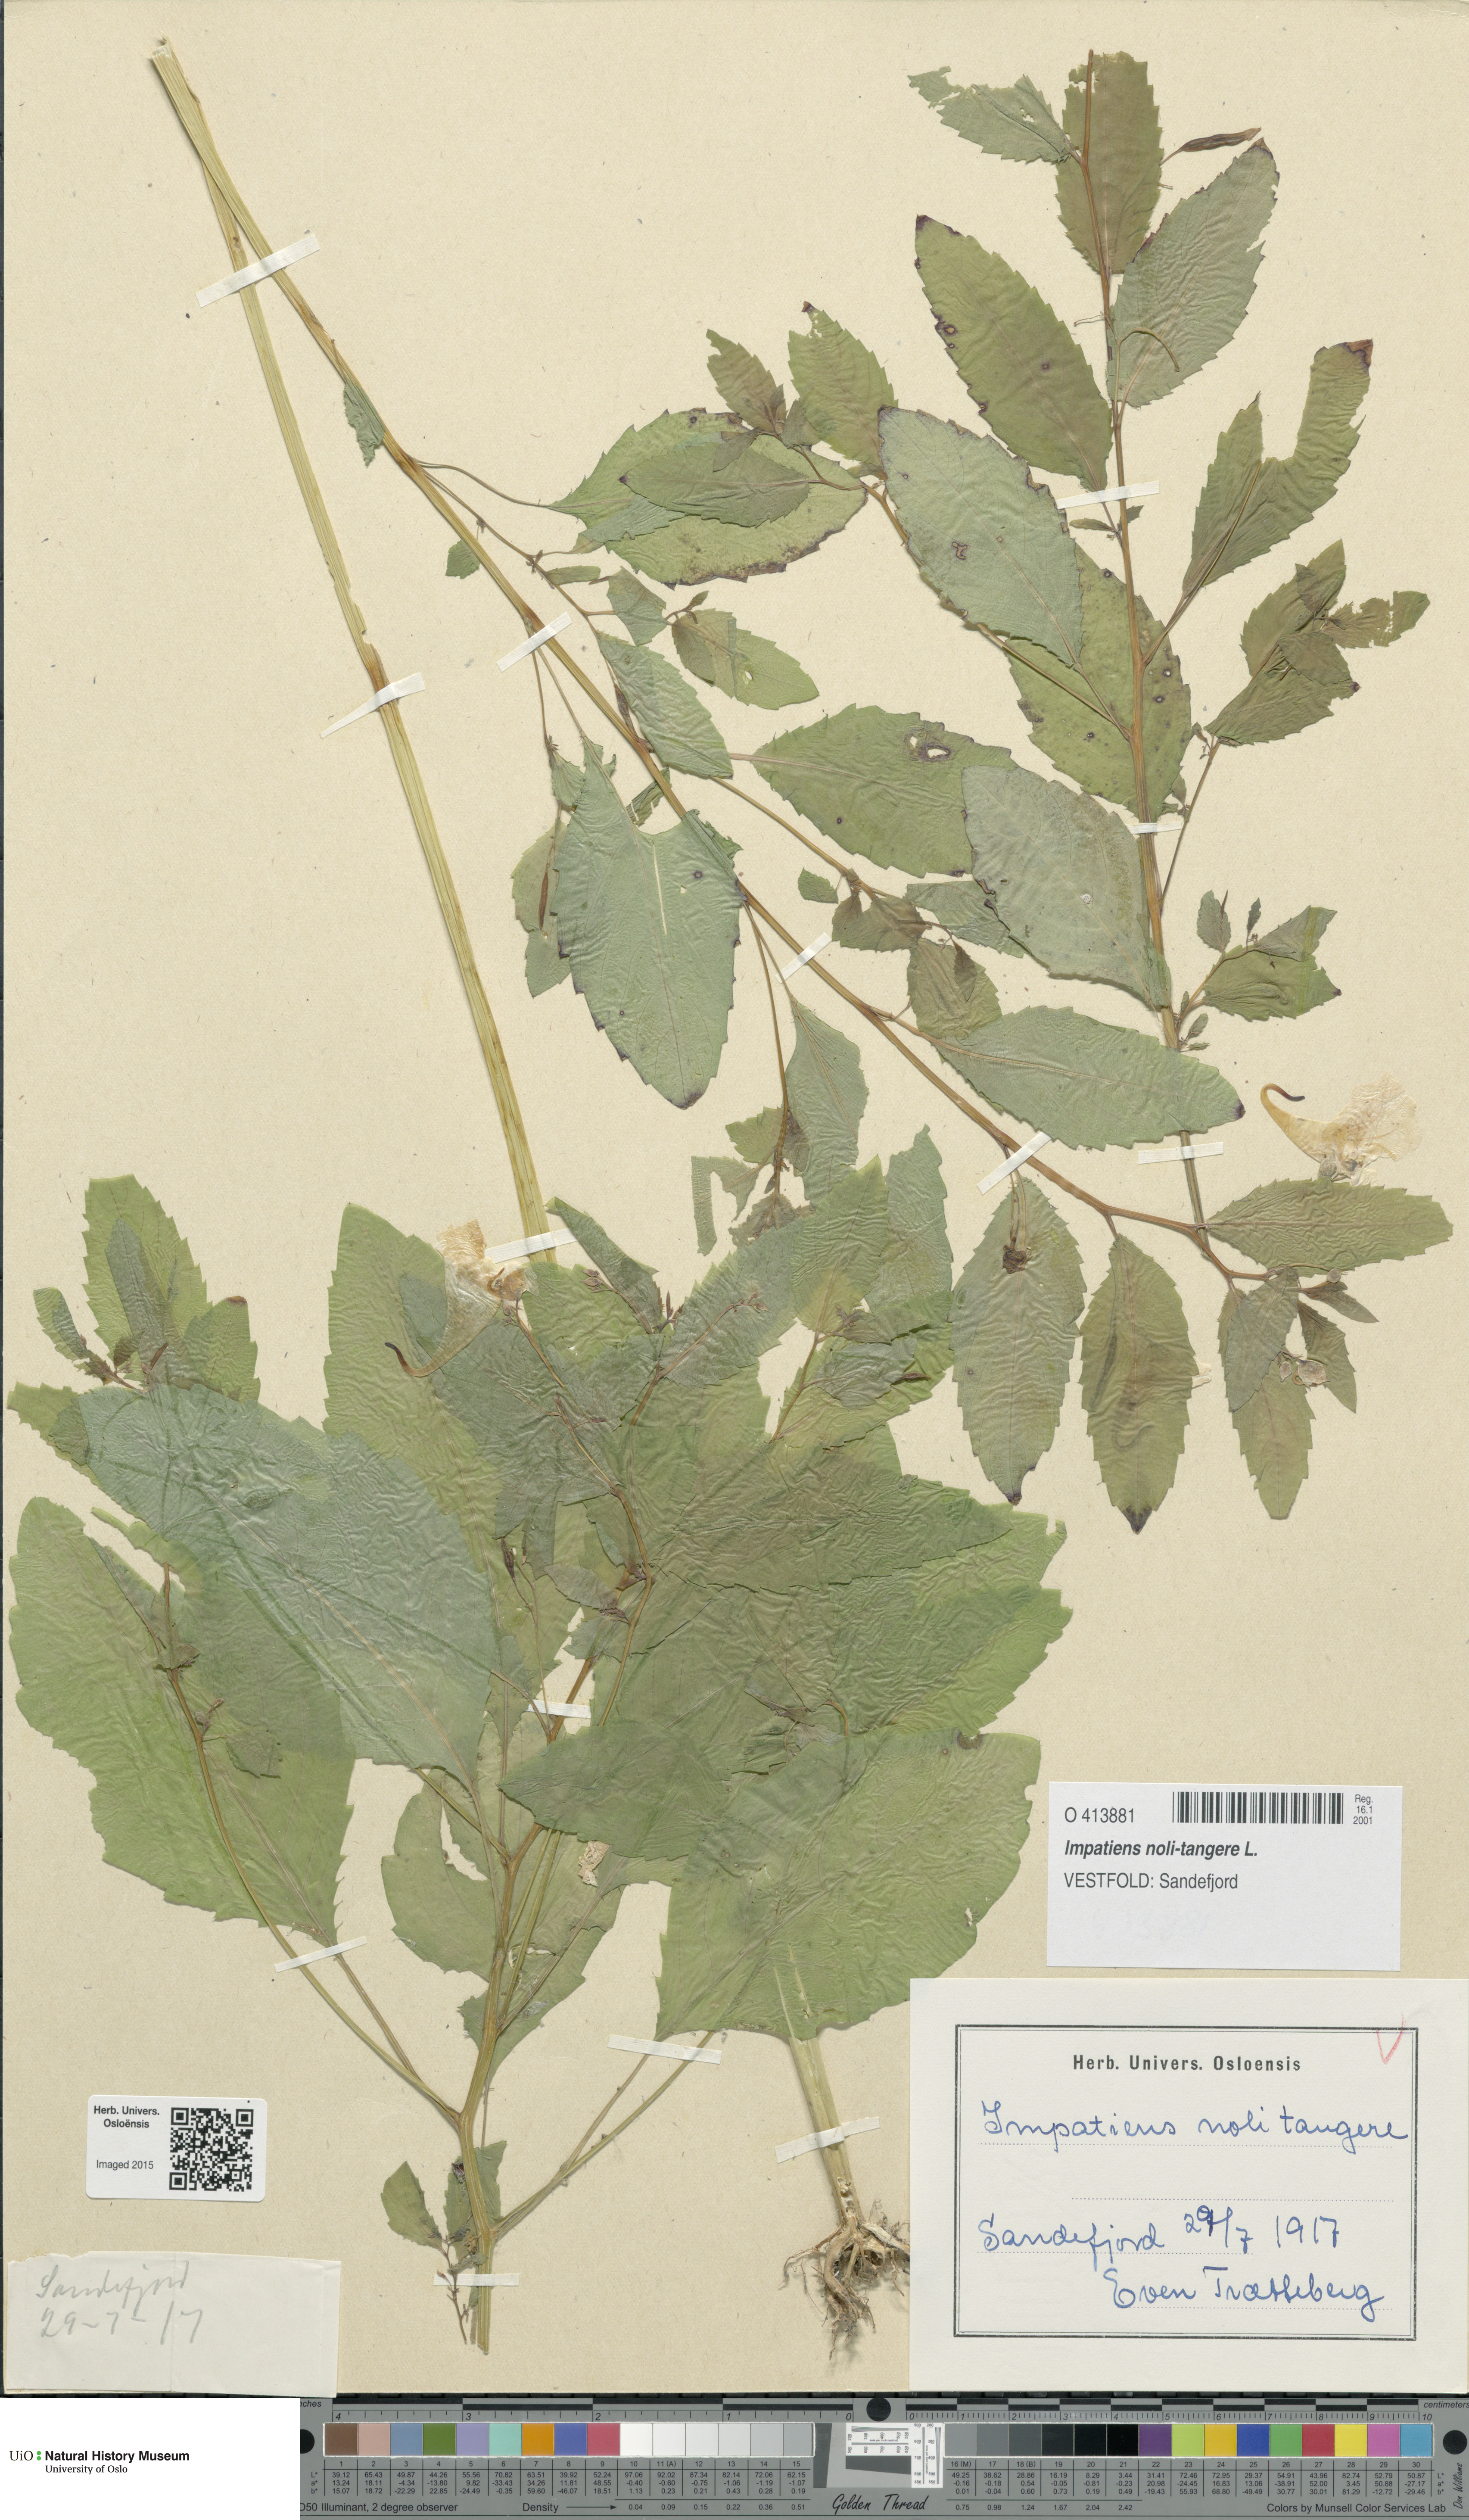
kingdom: Plantae
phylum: Tracheophyta
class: Magnoliopsida
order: Ericales
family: Balsaminaceae
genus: Impatiens
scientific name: Impatiens noli-tangere
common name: Touch-me-not balsam
